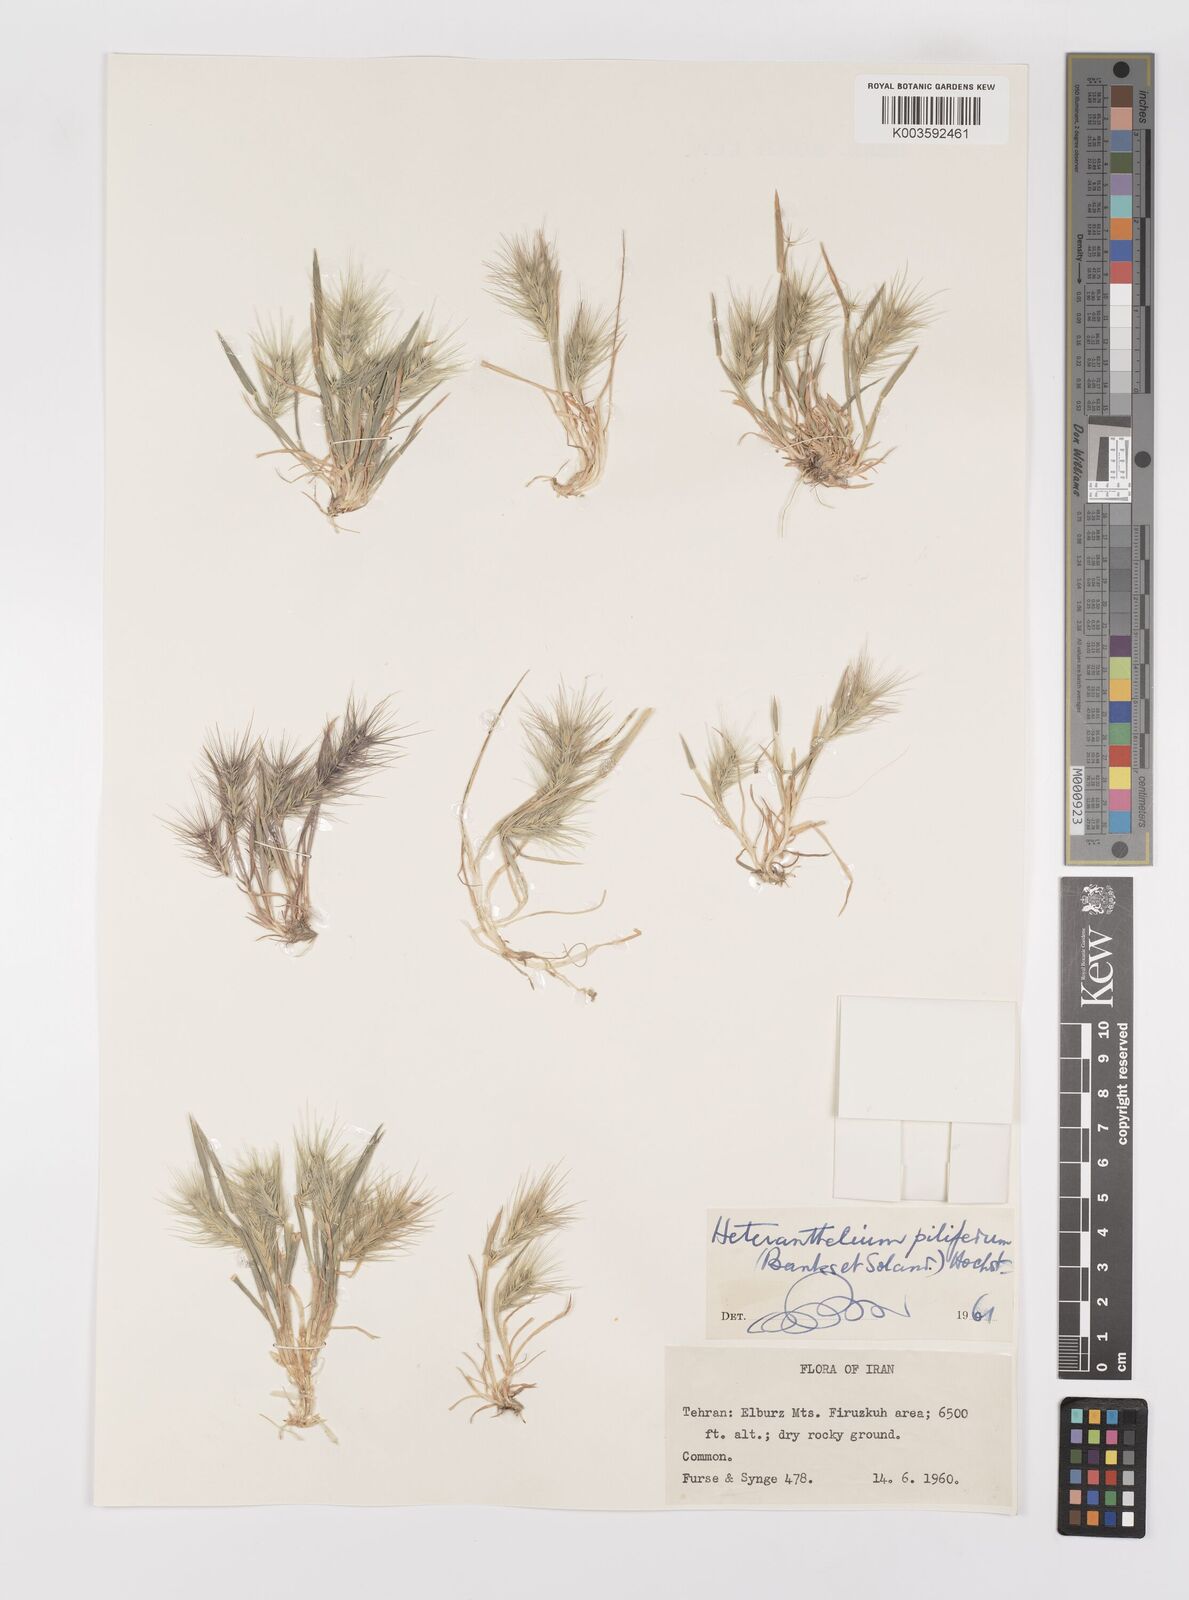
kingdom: Plantae
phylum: Tracheophyta
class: Liliopsida
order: Poales
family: Poaceae
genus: Heteranthelium
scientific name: Heteranthelium piliferum
